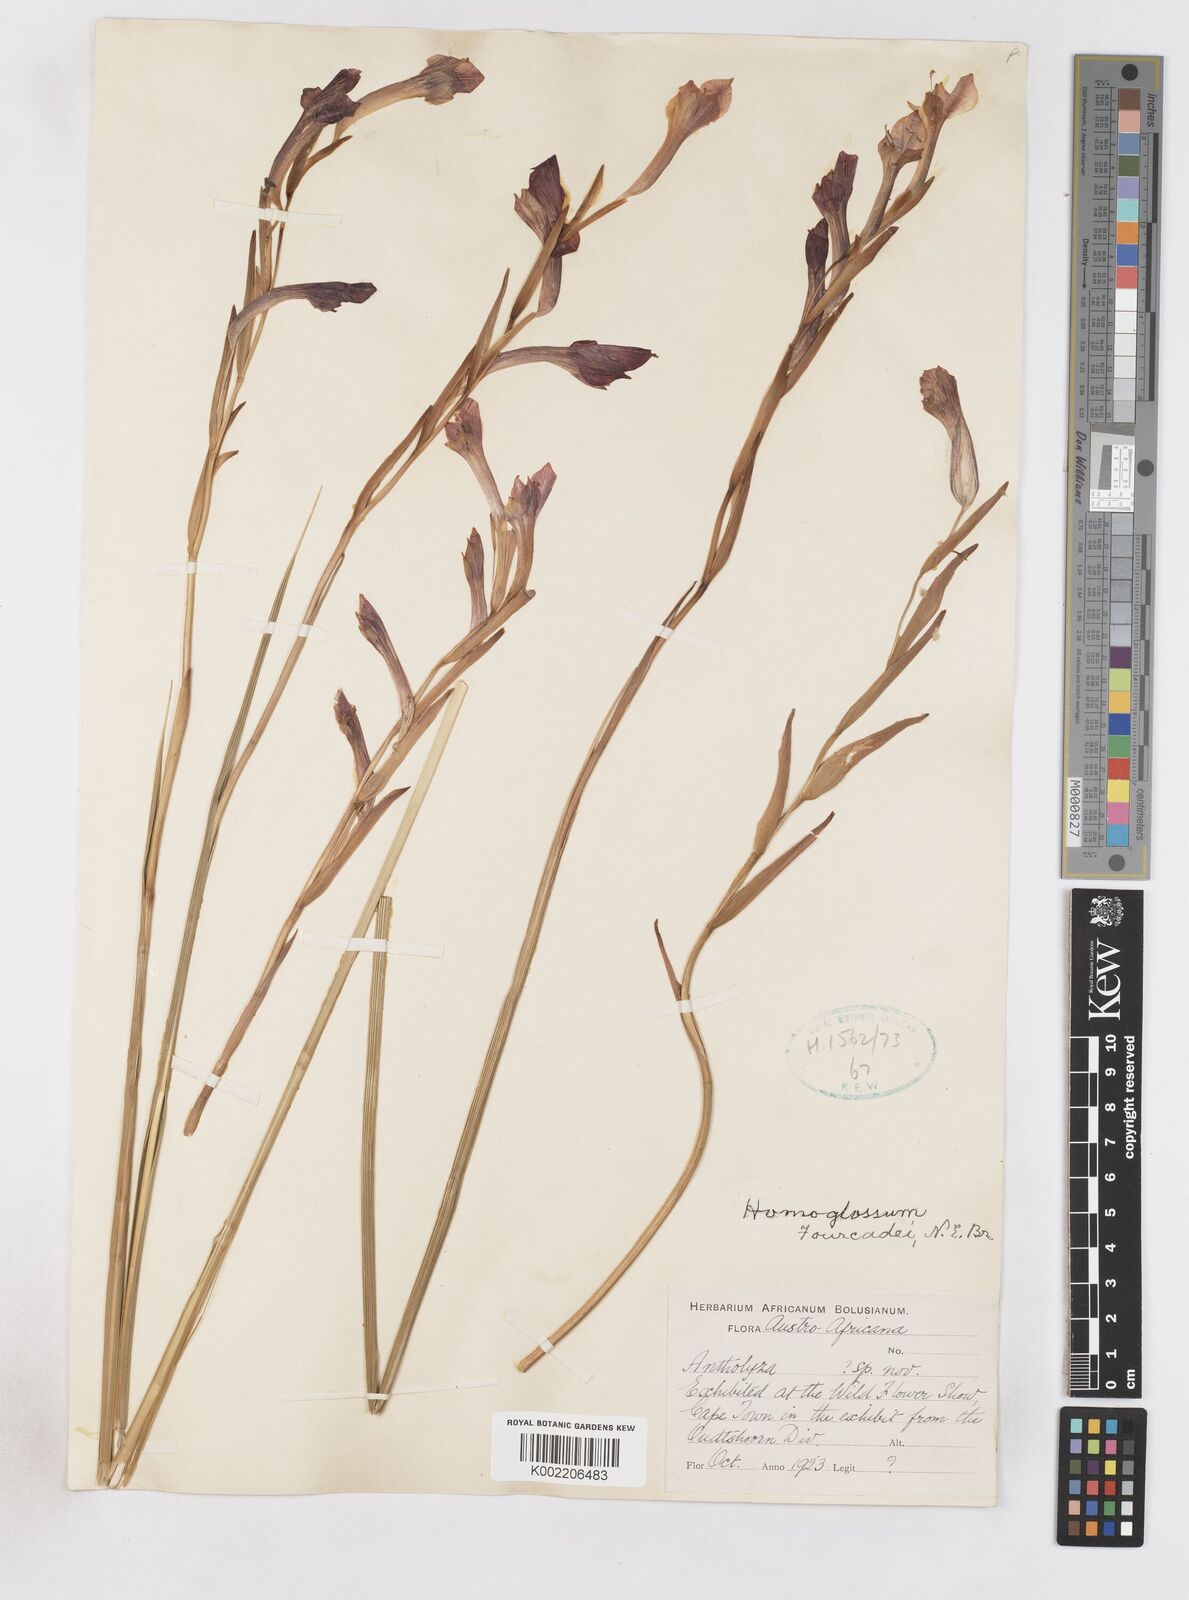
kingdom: Plantae
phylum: Tracheophyta
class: Liliopsida
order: Asparagales
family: Iridaceae
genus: Gladiolus
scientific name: Gladiolus fourcadei
